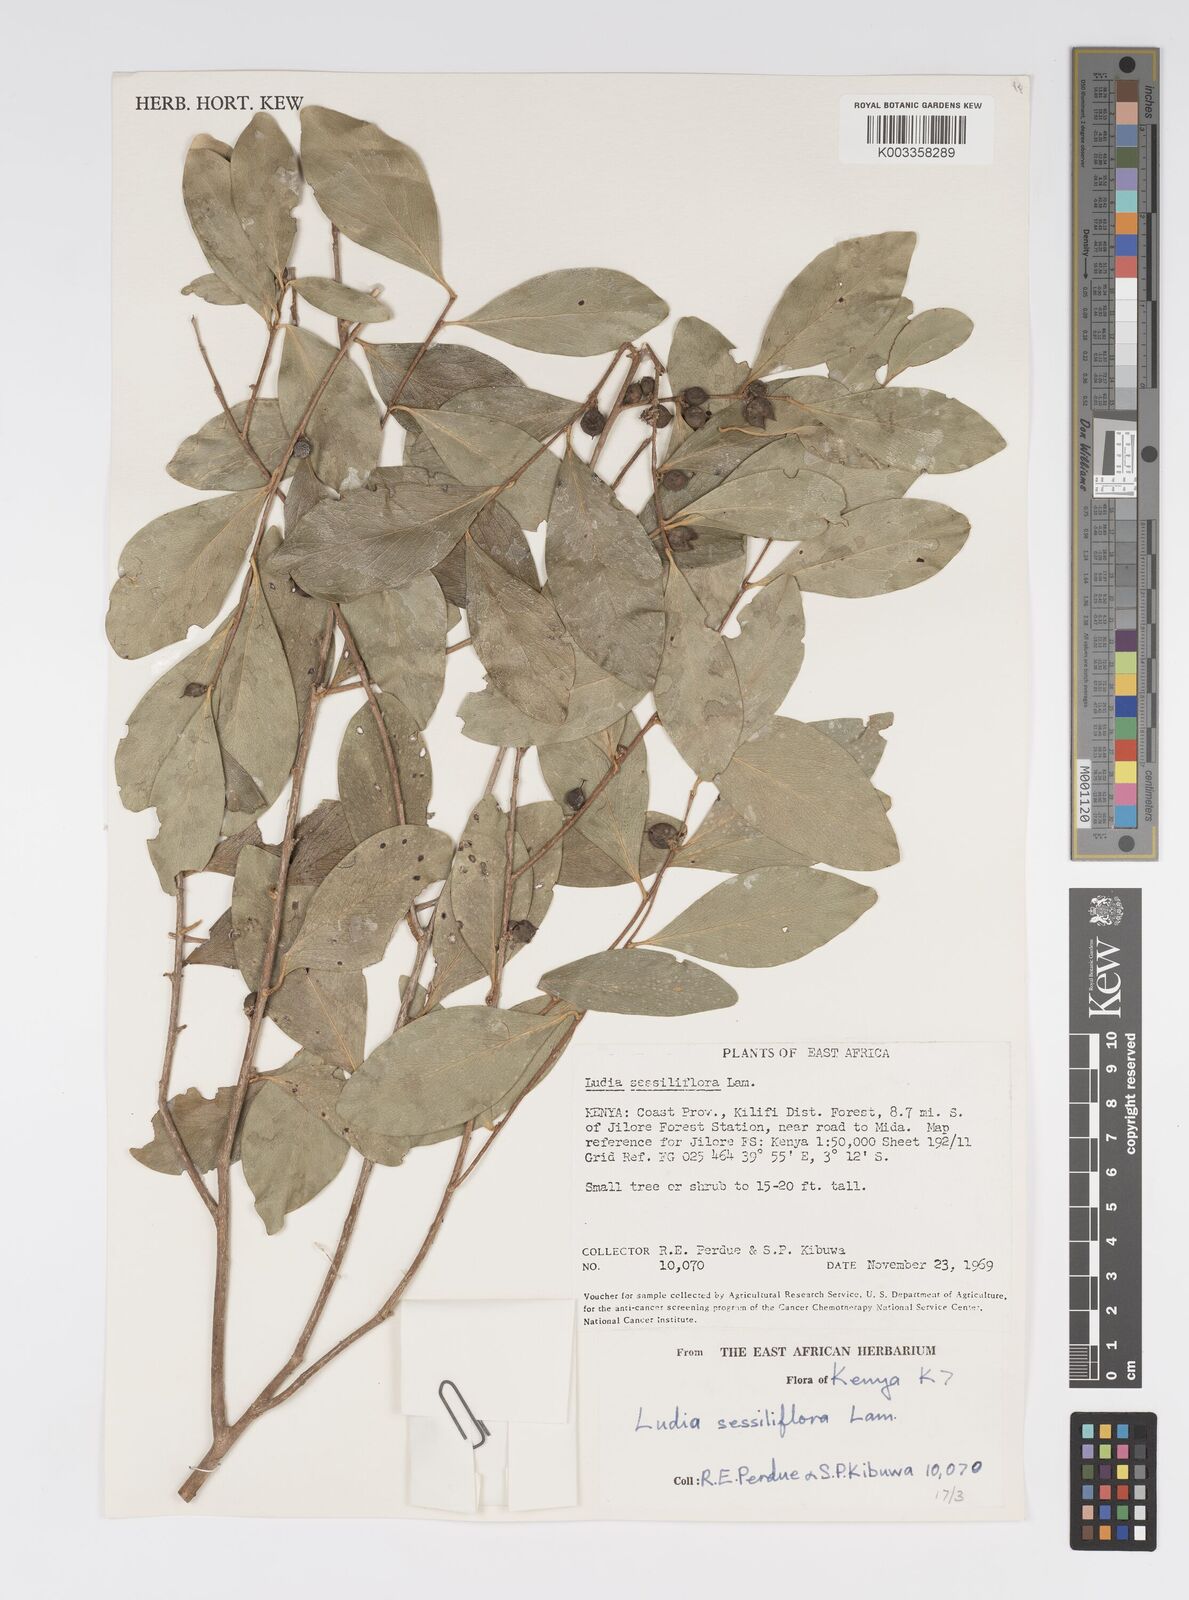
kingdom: Plantae
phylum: Tracheophyta
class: Magnoliopsida
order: Malpighiales
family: Salicaceae
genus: Ludia
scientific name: Ludia mauritiana
